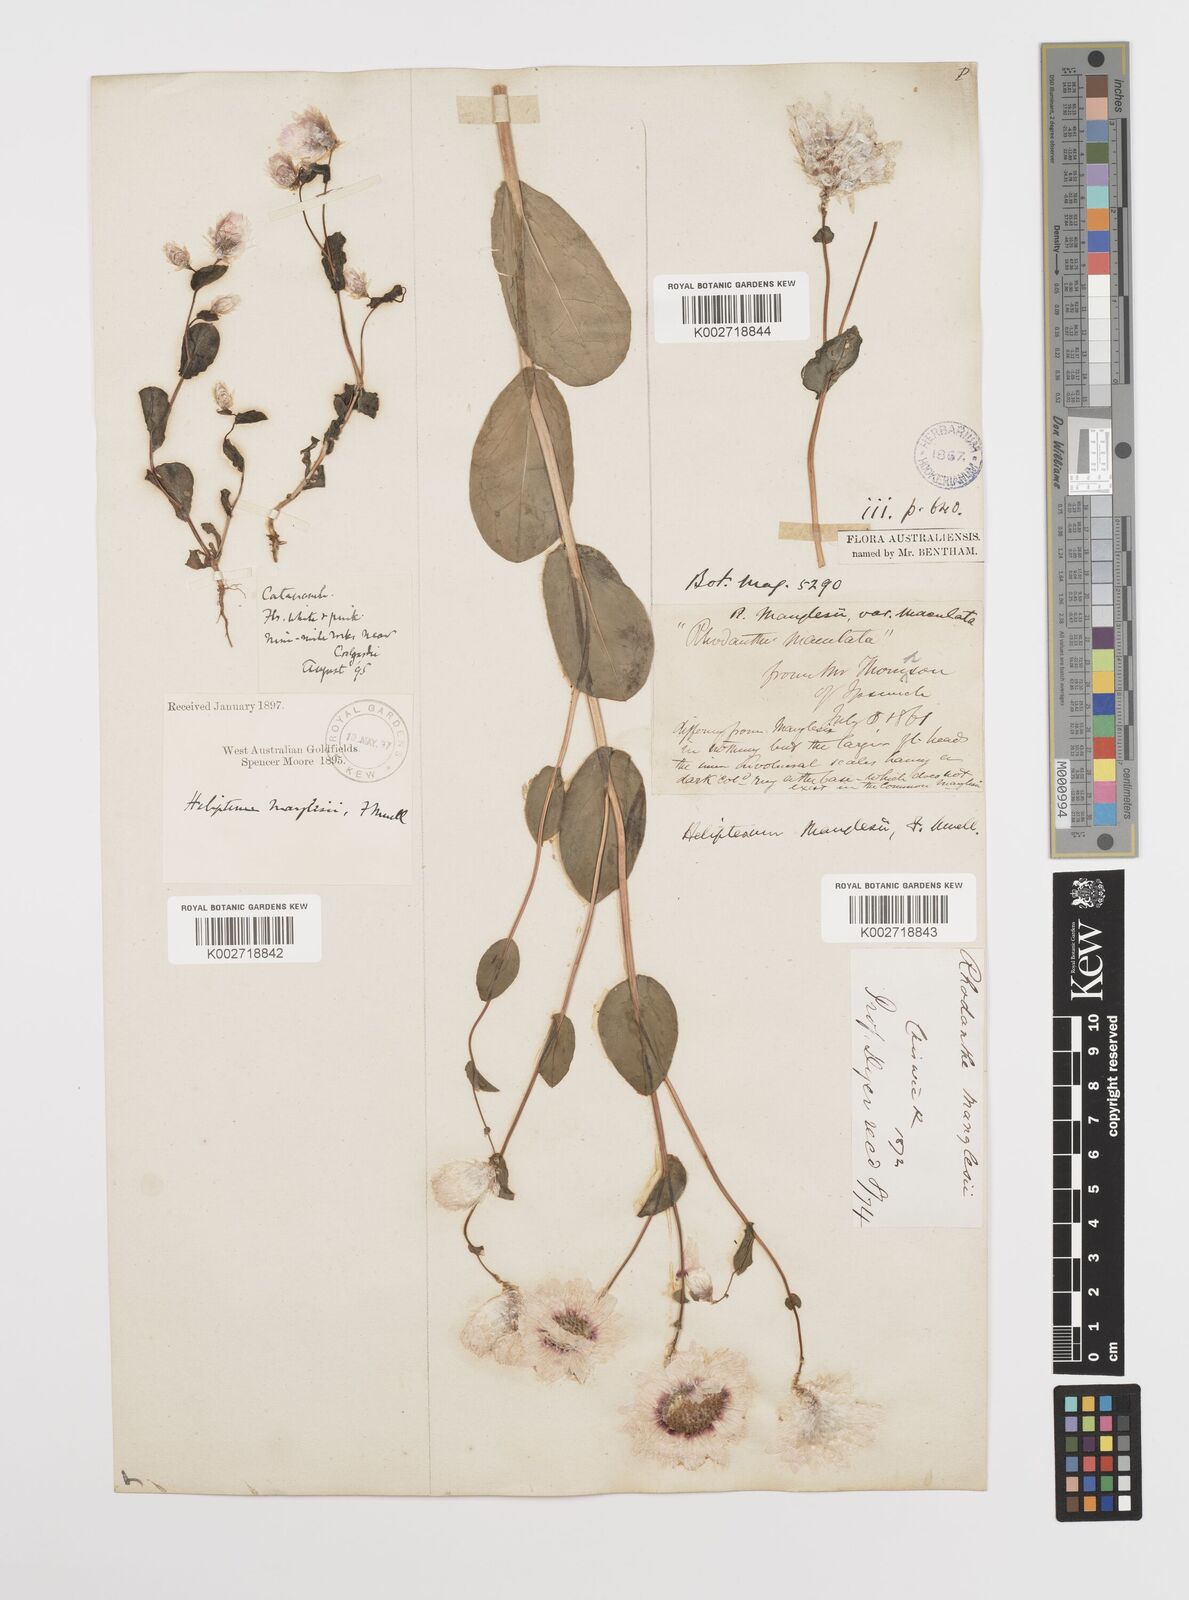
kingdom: Plantae
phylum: Tracheophyta
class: Magnoliopsida
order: Asterales
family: Asteraceae
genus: Rhodanthe
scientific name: Rhodanthe manglesii
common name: Pink sunray
